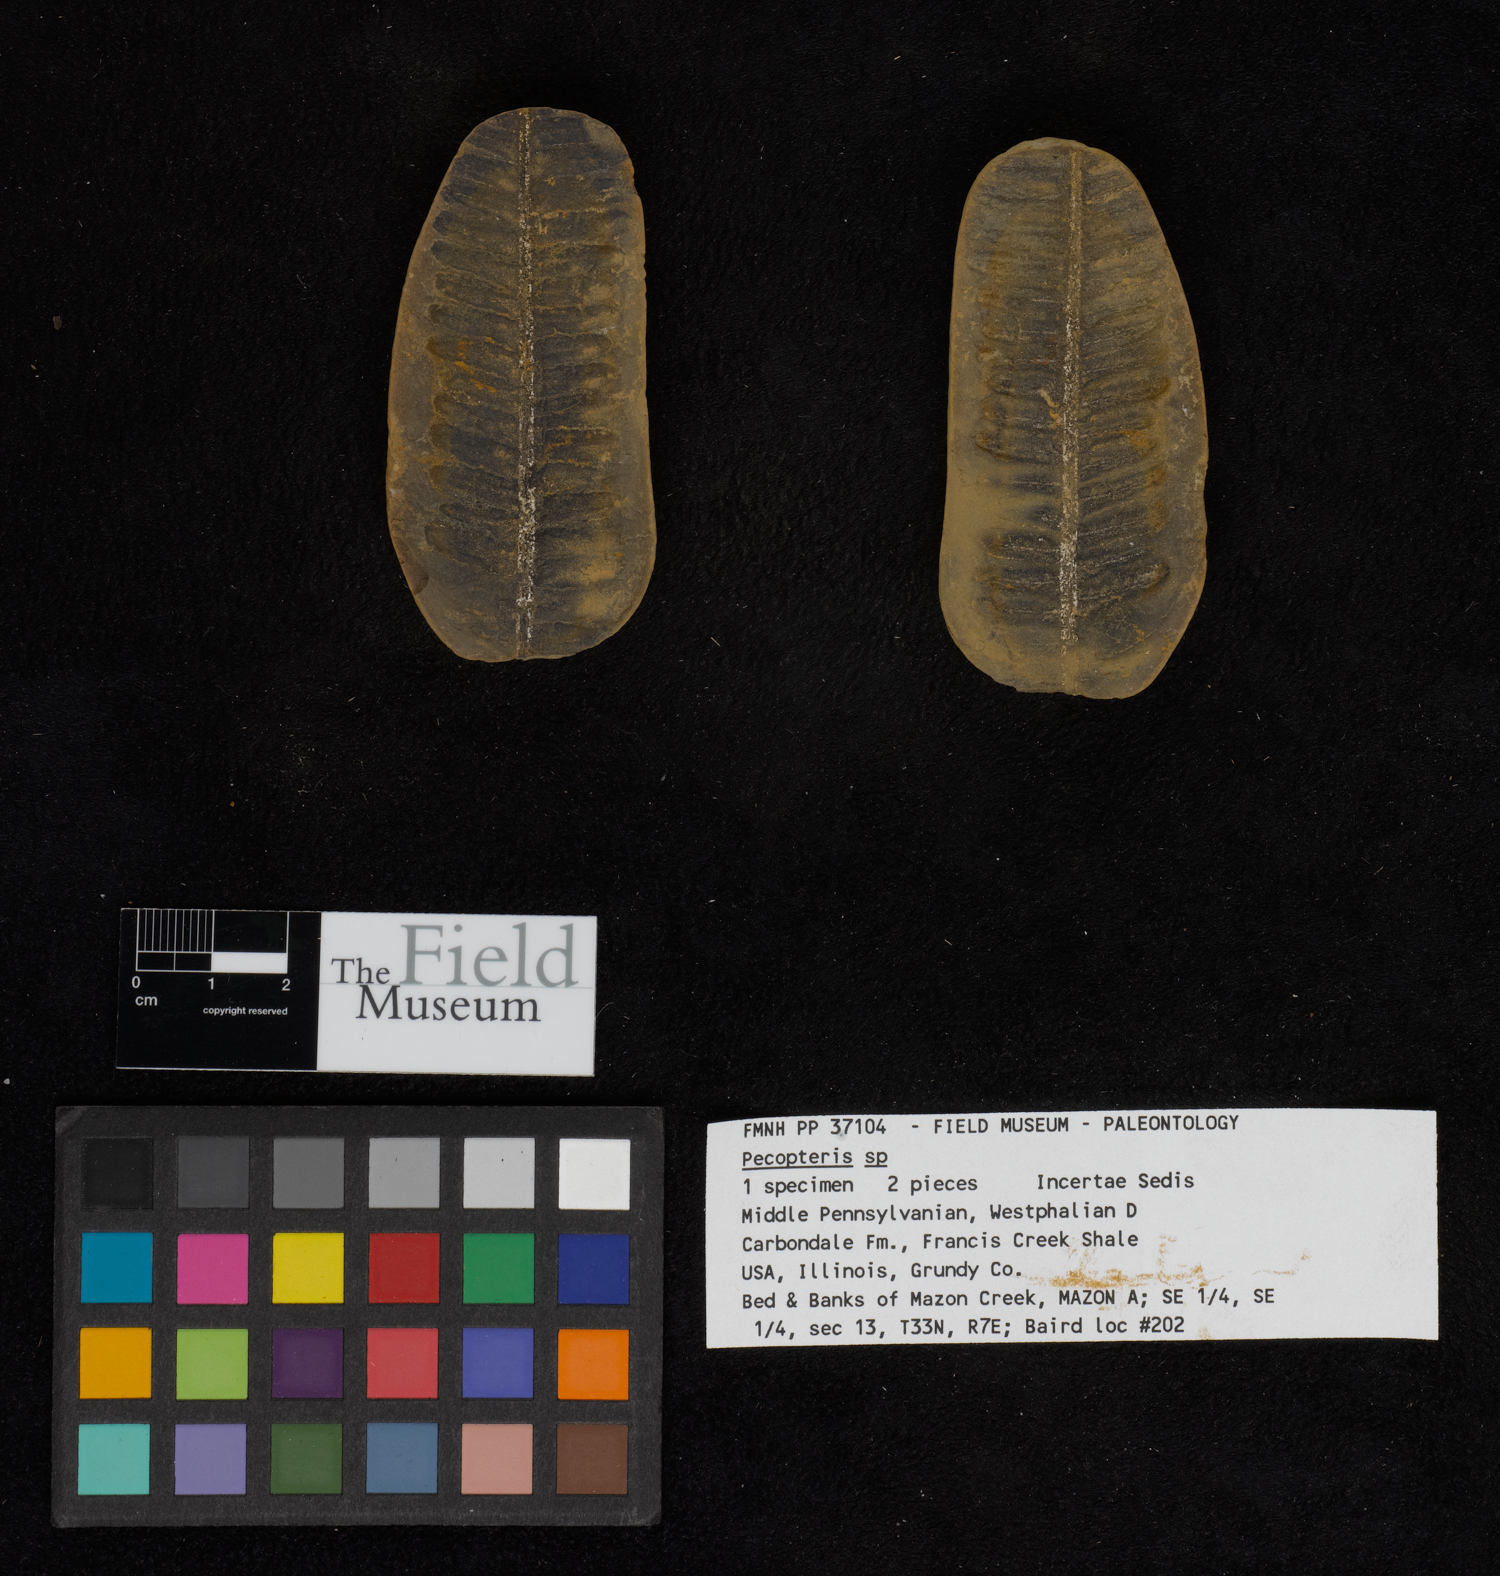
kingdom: Plantae
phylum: Tracheophyta
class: Polypodiopsida
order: Marattiales
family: Asterothecaceae
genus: Pecopteris
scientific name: Pecopteris
